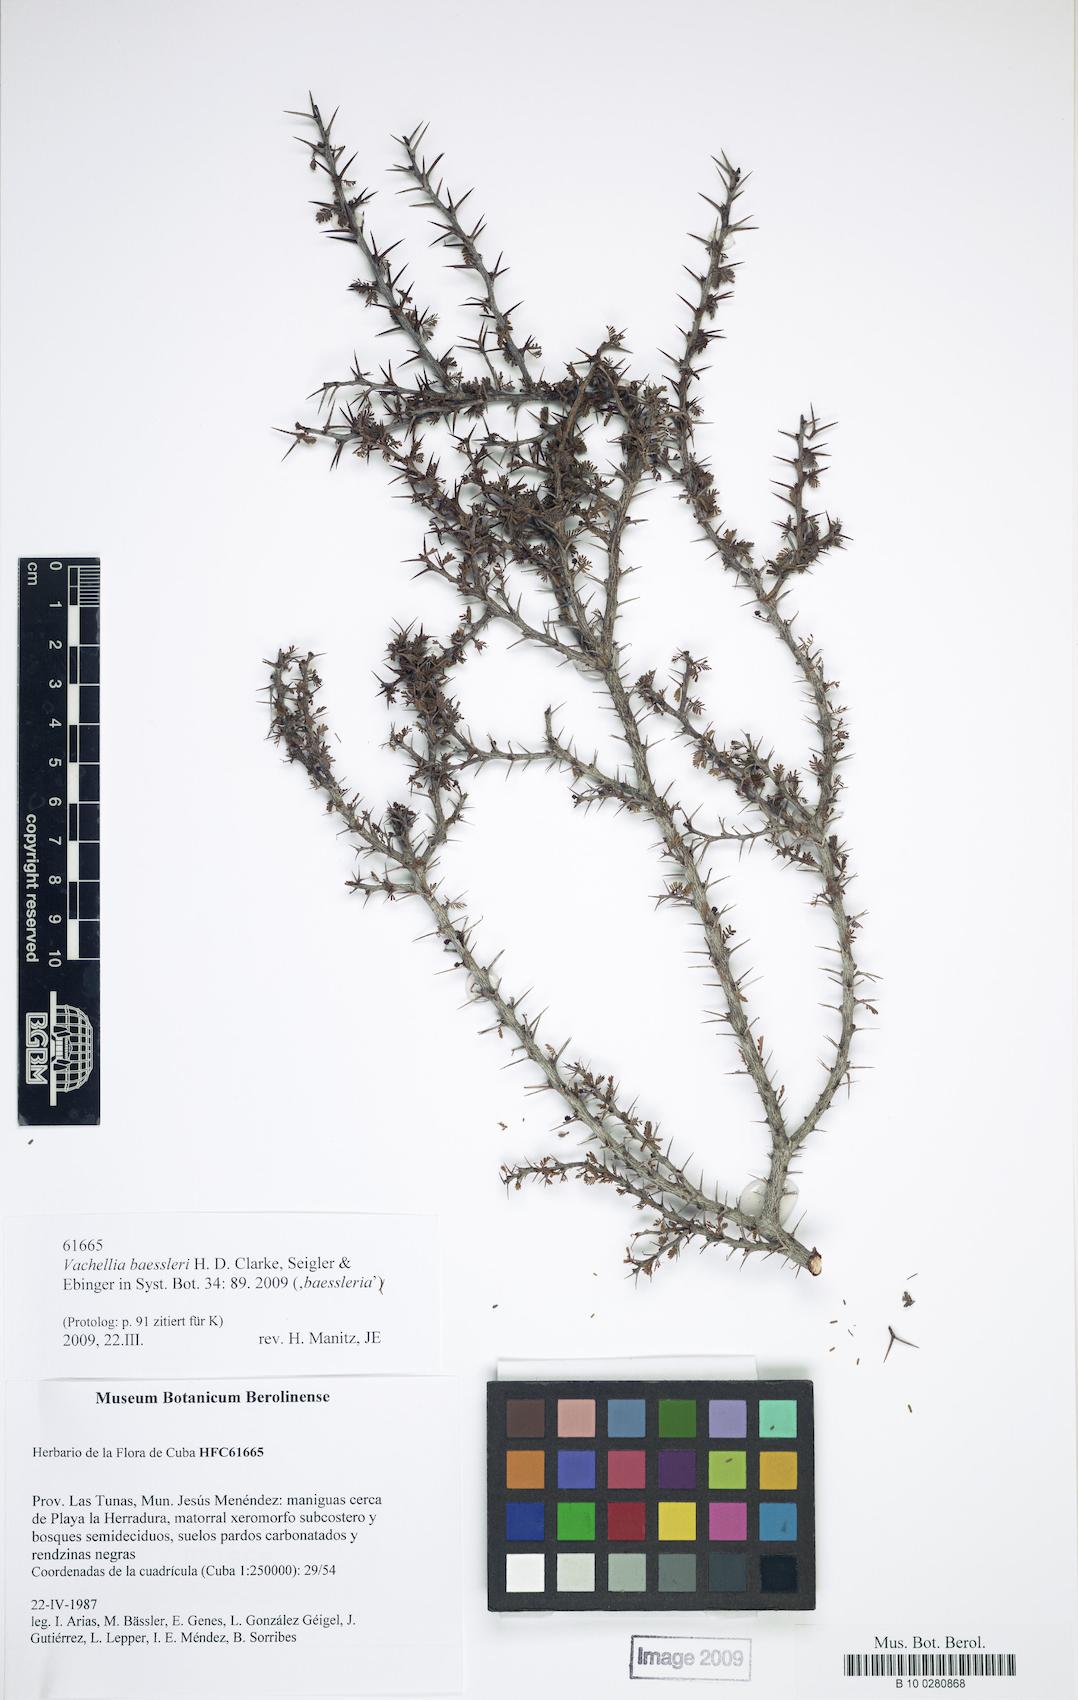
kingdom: Plantae
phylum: Tracheophyta
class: Magnoliopsida
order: Fabales
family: Fabaceae
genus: Vachellia
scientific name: Vachellia baessleri
